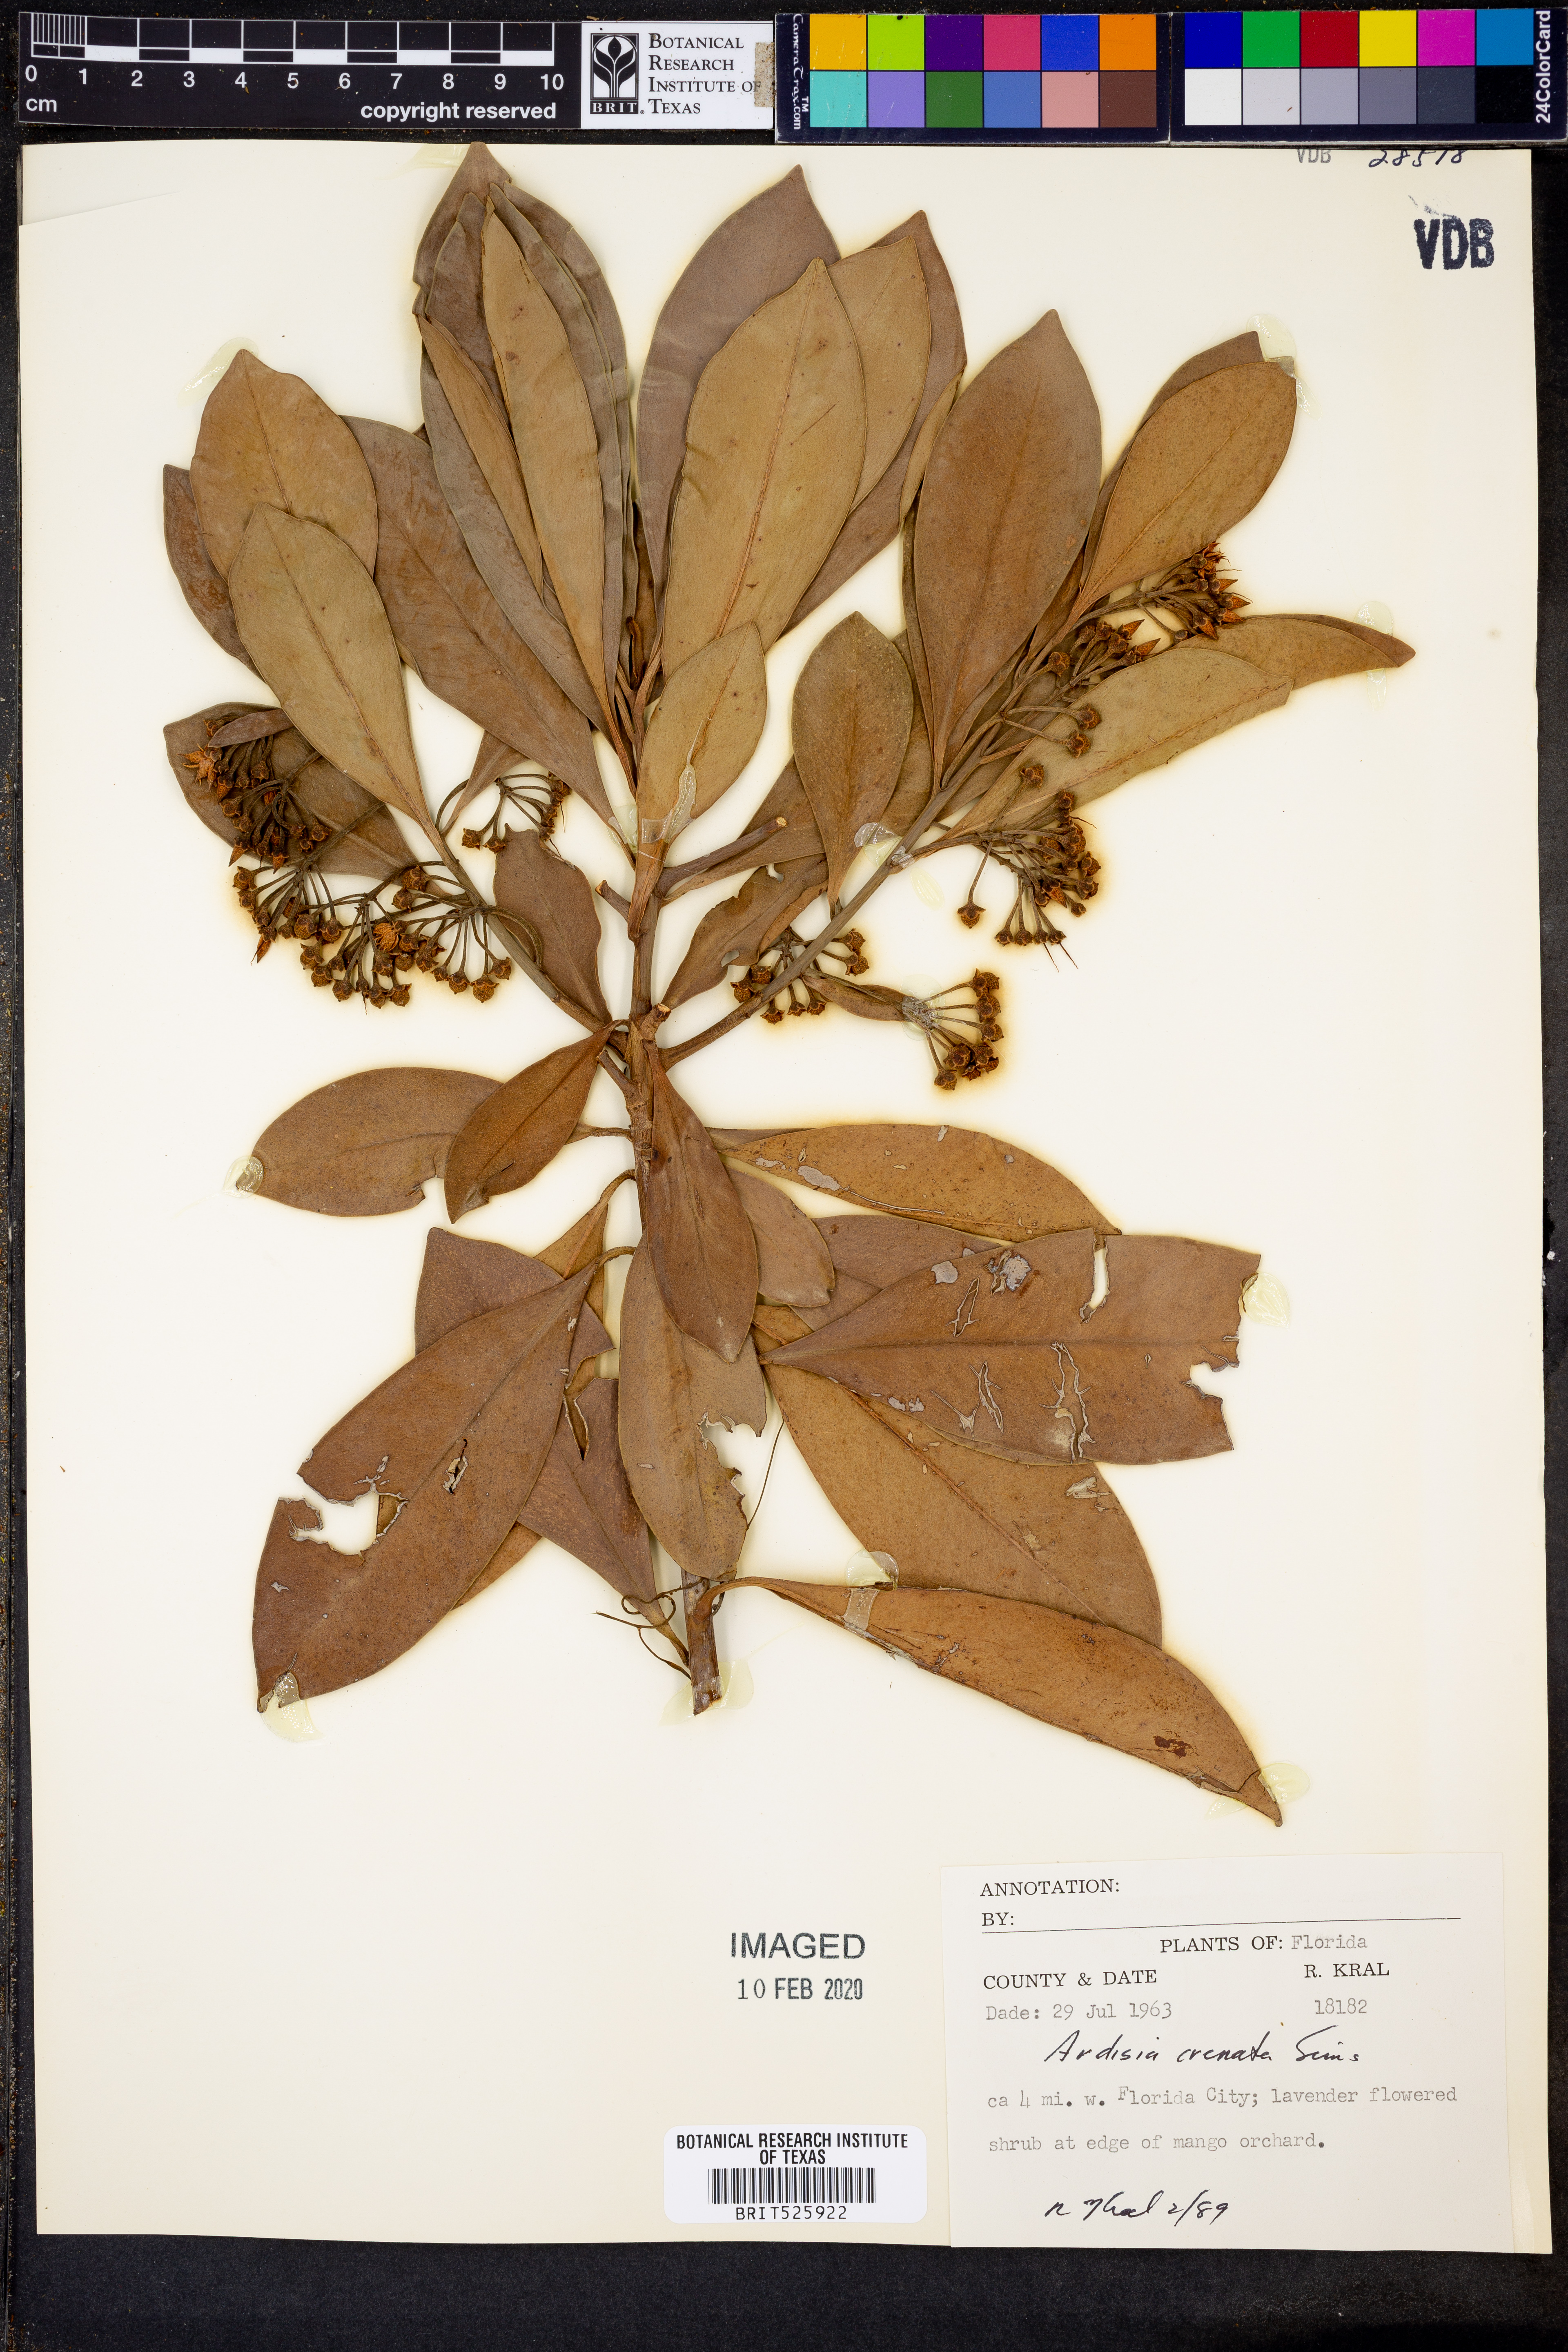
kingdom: Plantae
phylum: Tracheophyta
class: Magnoliopsida
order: Ericales
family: Primulaceae
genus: Ardisia
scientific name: Ardisia crenata
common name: Hen's eyes
